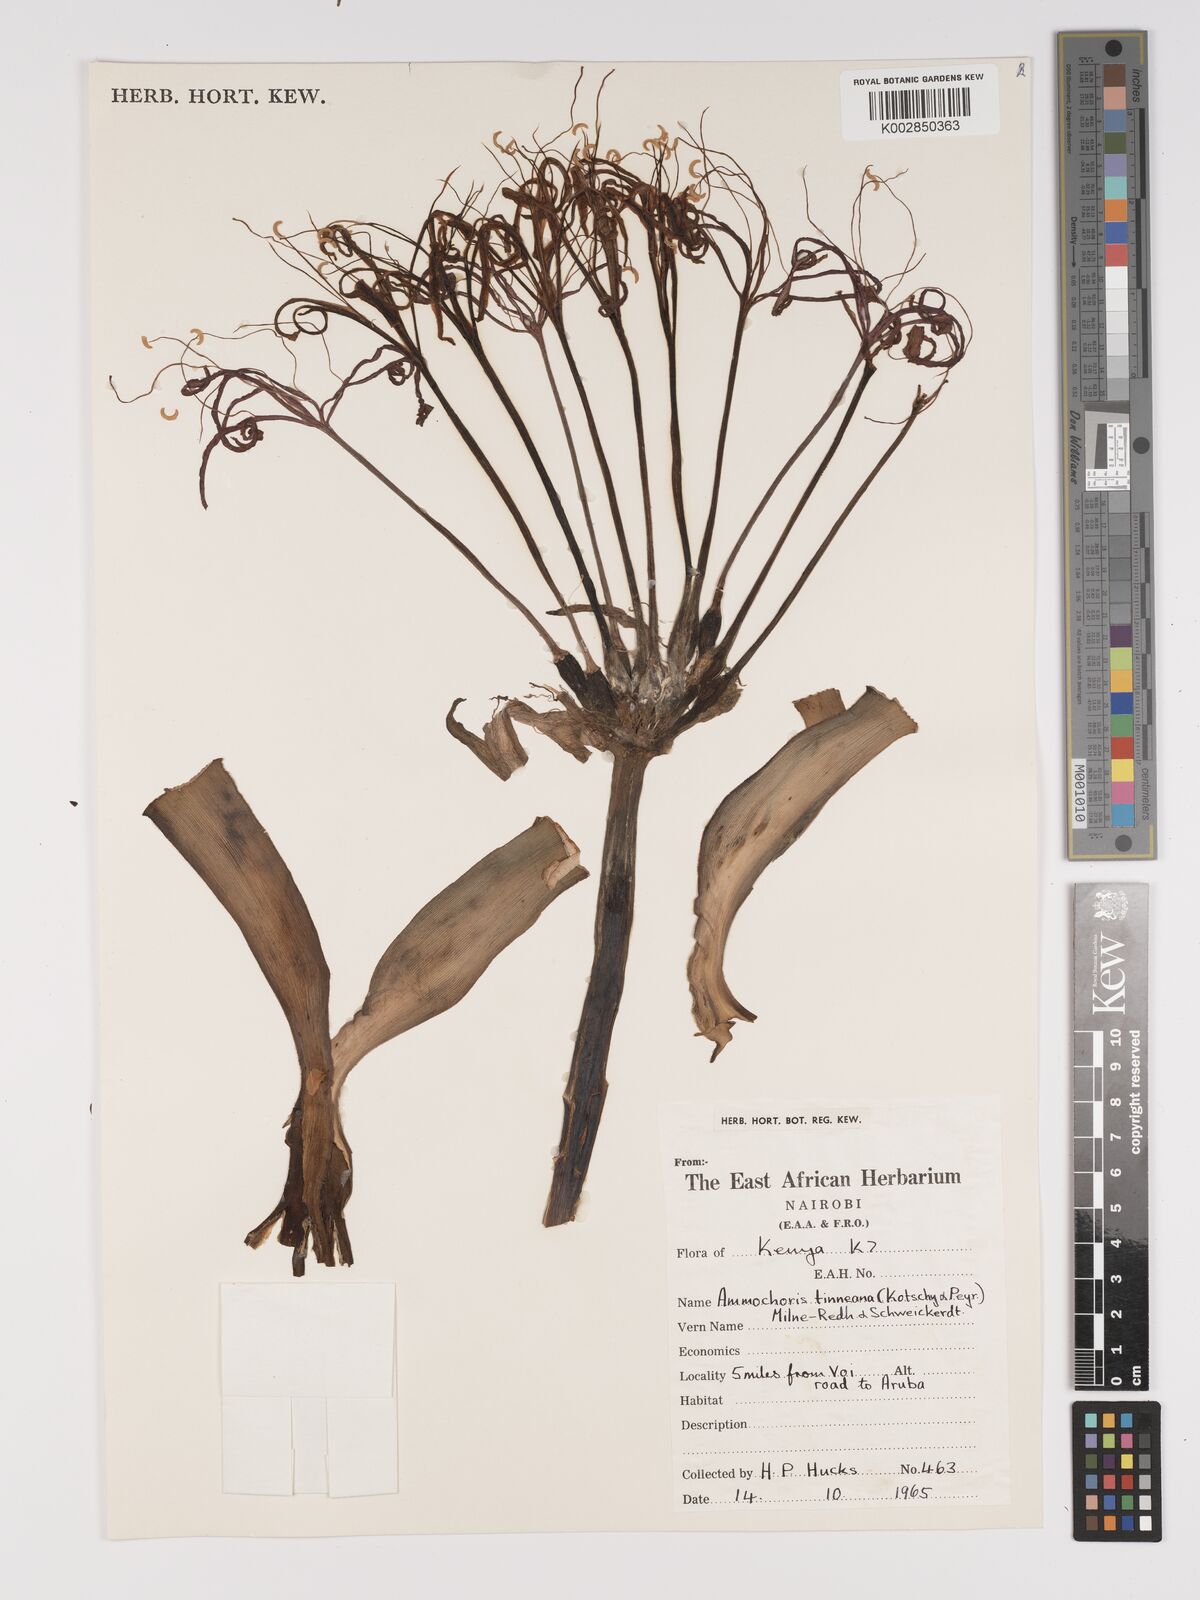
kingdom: Plantae
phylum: Tracheophyta
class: Liliopsida
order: Asparagales
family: Amaryllidaceae
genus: Ammocharis
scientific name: Ammocharis tinneana
